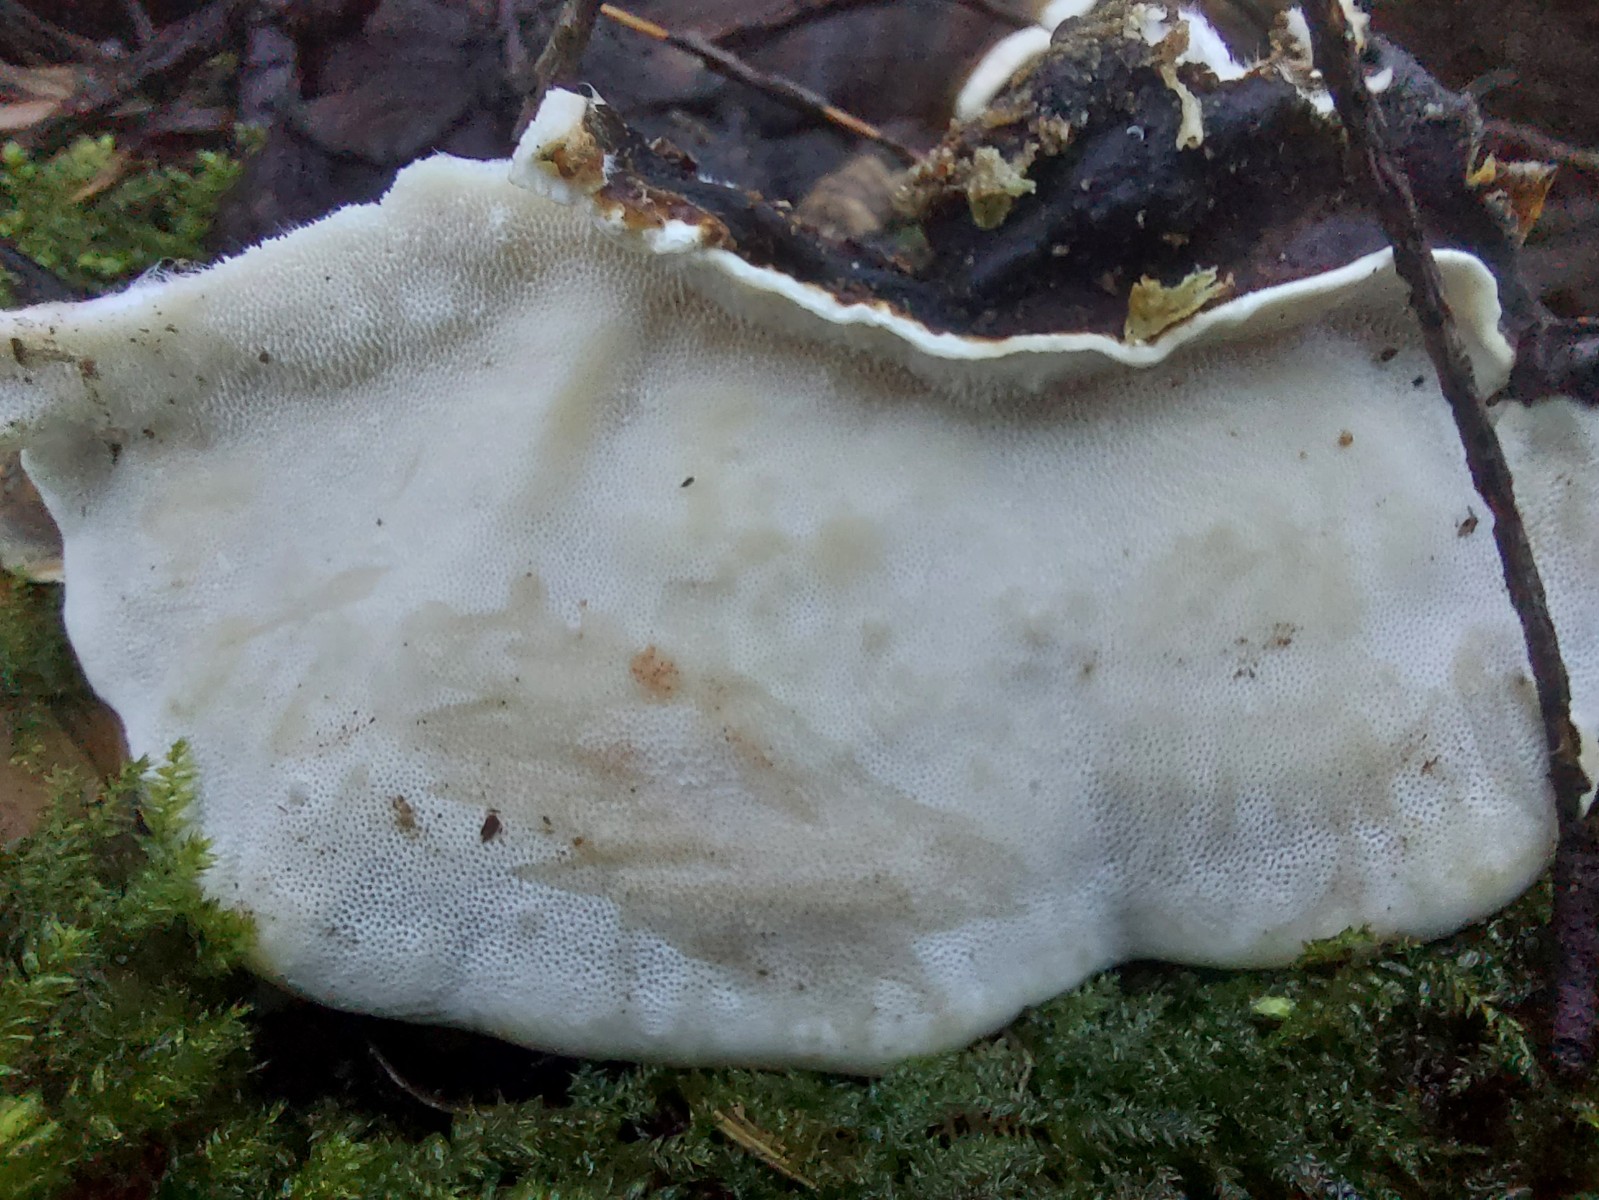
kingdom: Fungi
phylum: Basidiomycota
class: Agaricomycetes
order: Polyporales
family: Polyporaceae
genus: Trametes
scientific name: Trametes versicolor
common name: broget læderporesvamp
